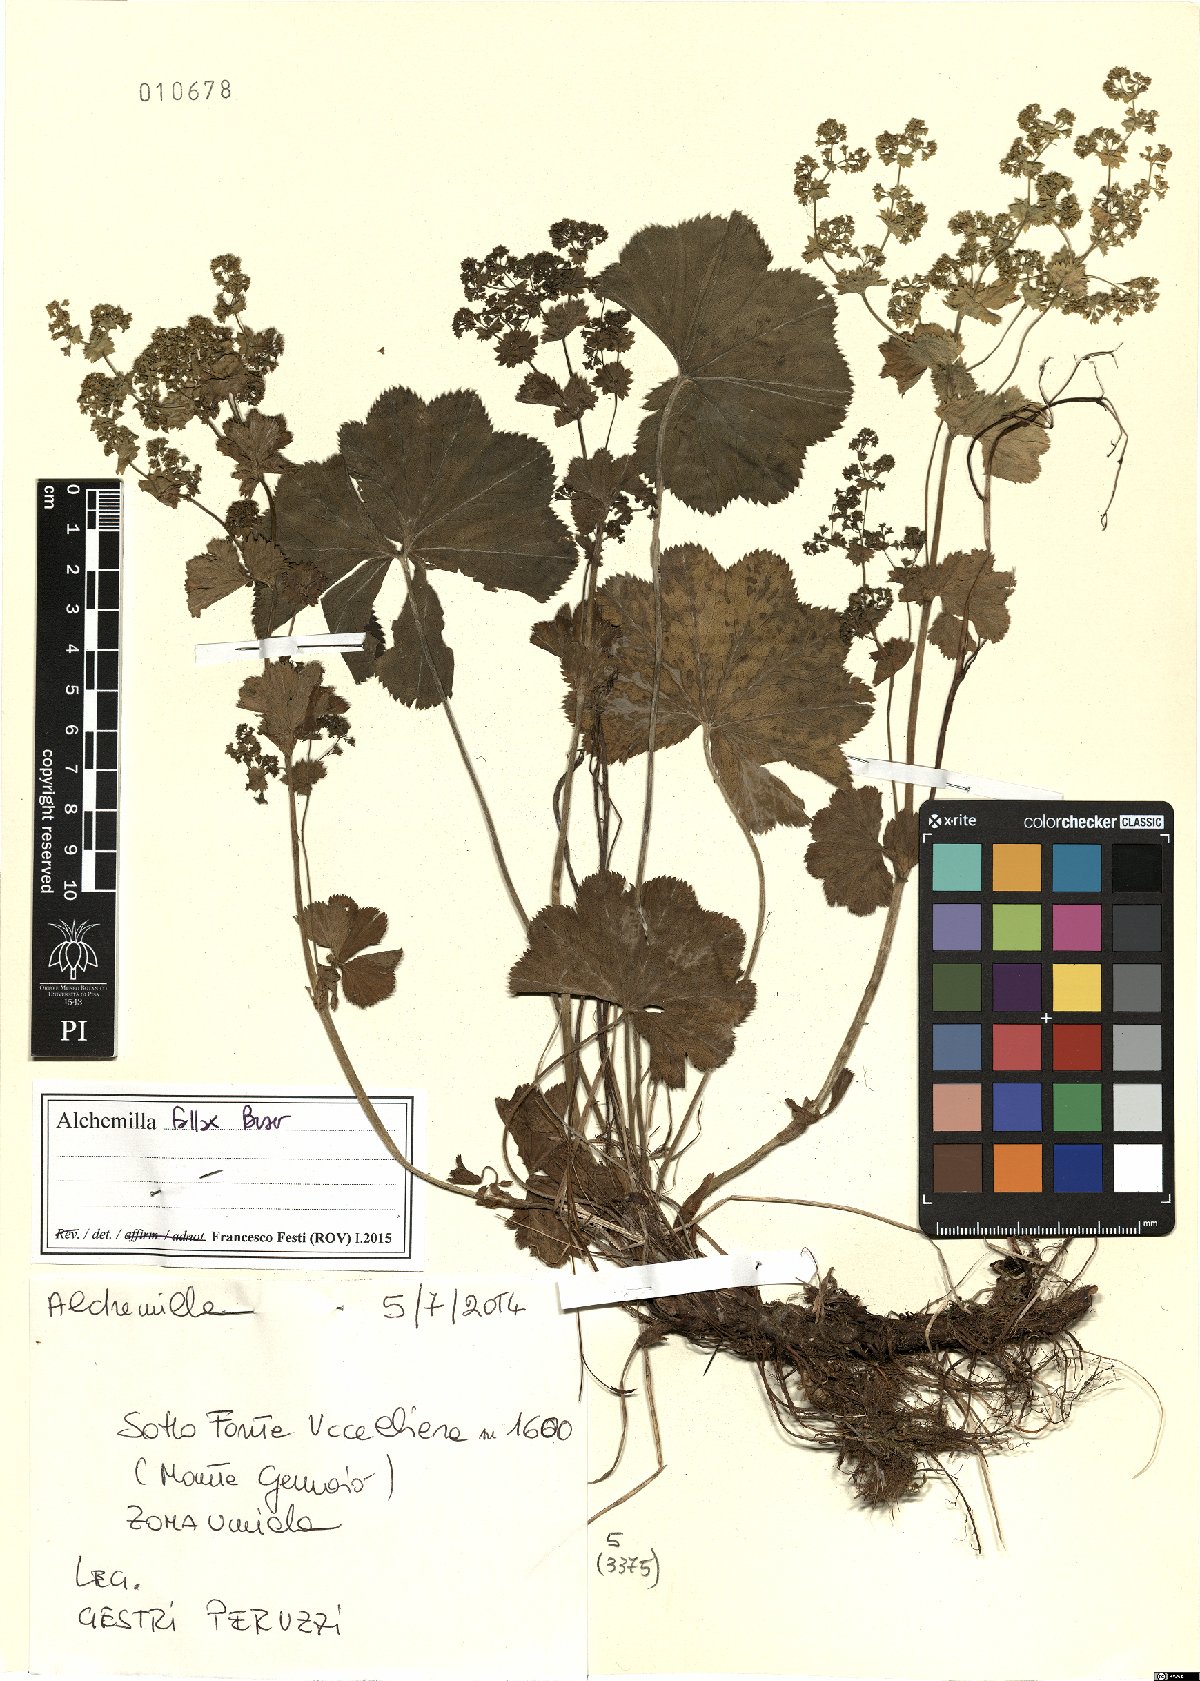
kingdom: Plantae
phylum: Tracheophyta
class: Magnoliopsida
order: Rosales
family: Rosaceae
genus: Alchemilla
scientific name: Alchemilla fallax
